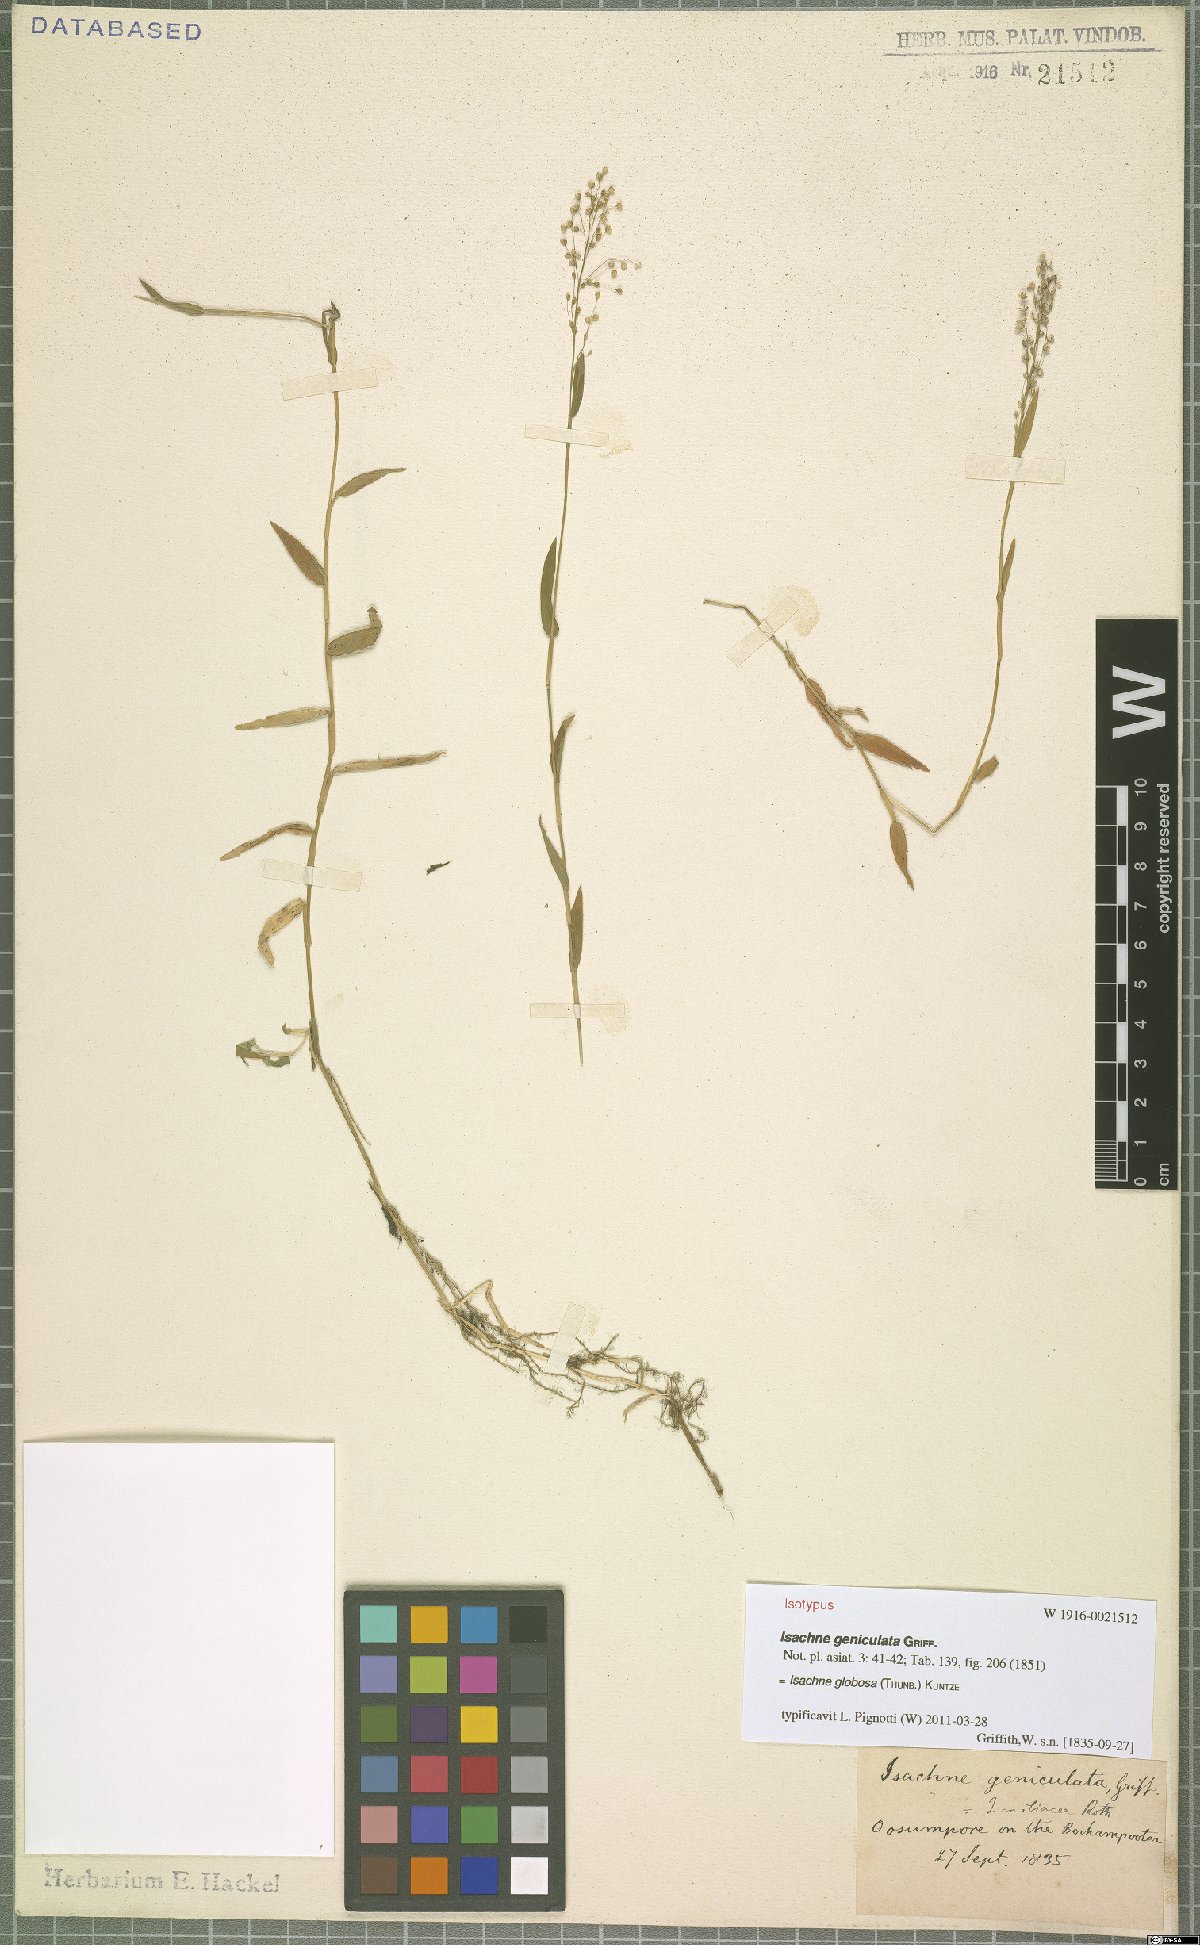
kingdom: Plantae
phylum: Tracheophyta
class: Liliopsida
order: Poales
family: Poaceae
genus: Isachne
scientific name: Isachne globosa
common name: Swamp millet
